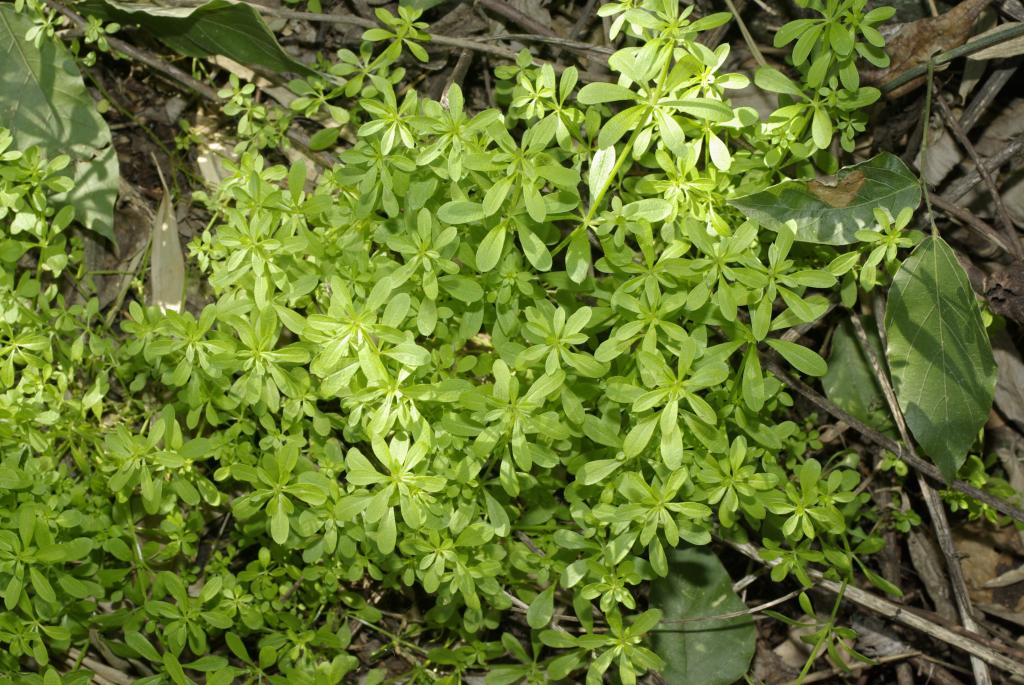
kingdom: Plantae
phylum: Tracheophyta
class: Magnoliopsida
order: Gentianales
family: Rubiaceae
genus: Galium
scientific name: Galium
